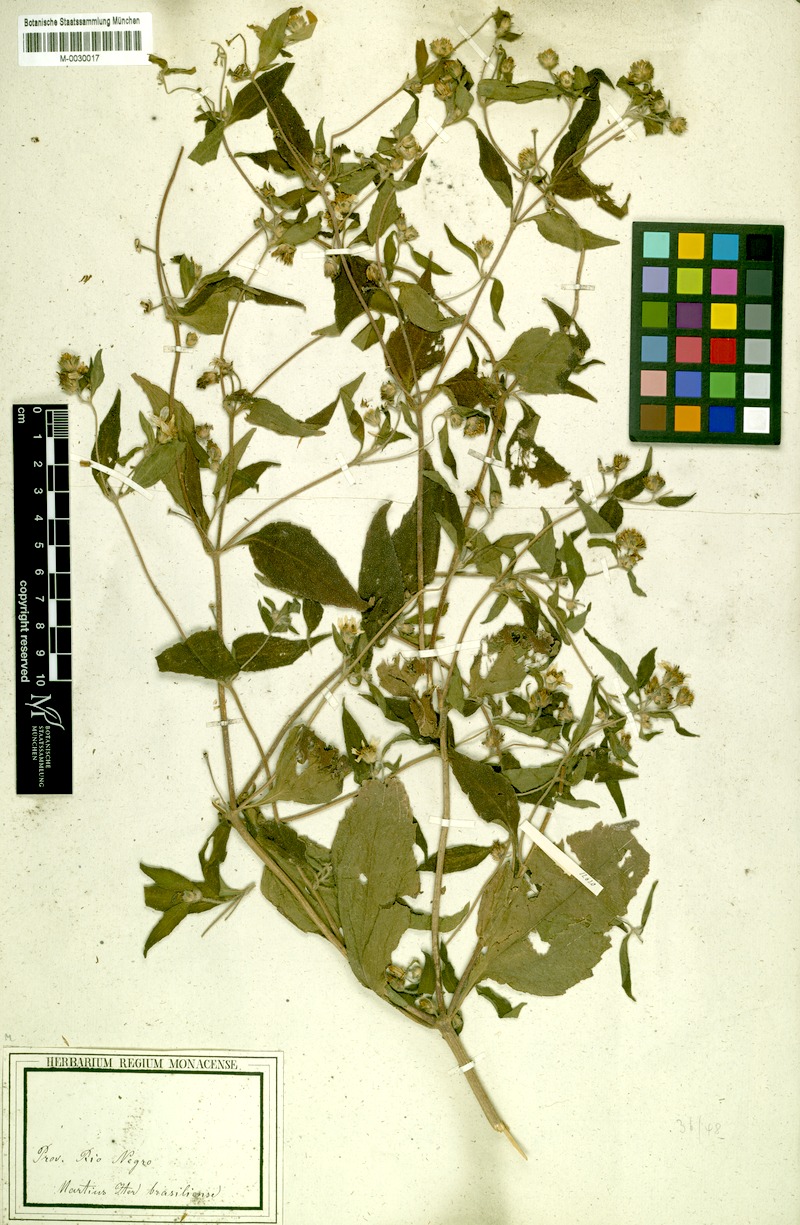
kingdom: Plantae
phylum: Tracheophyta
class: Magnoliopsida
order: Asterales
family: Asteraceae
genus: Wedelia
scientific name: Wedelia rudis
